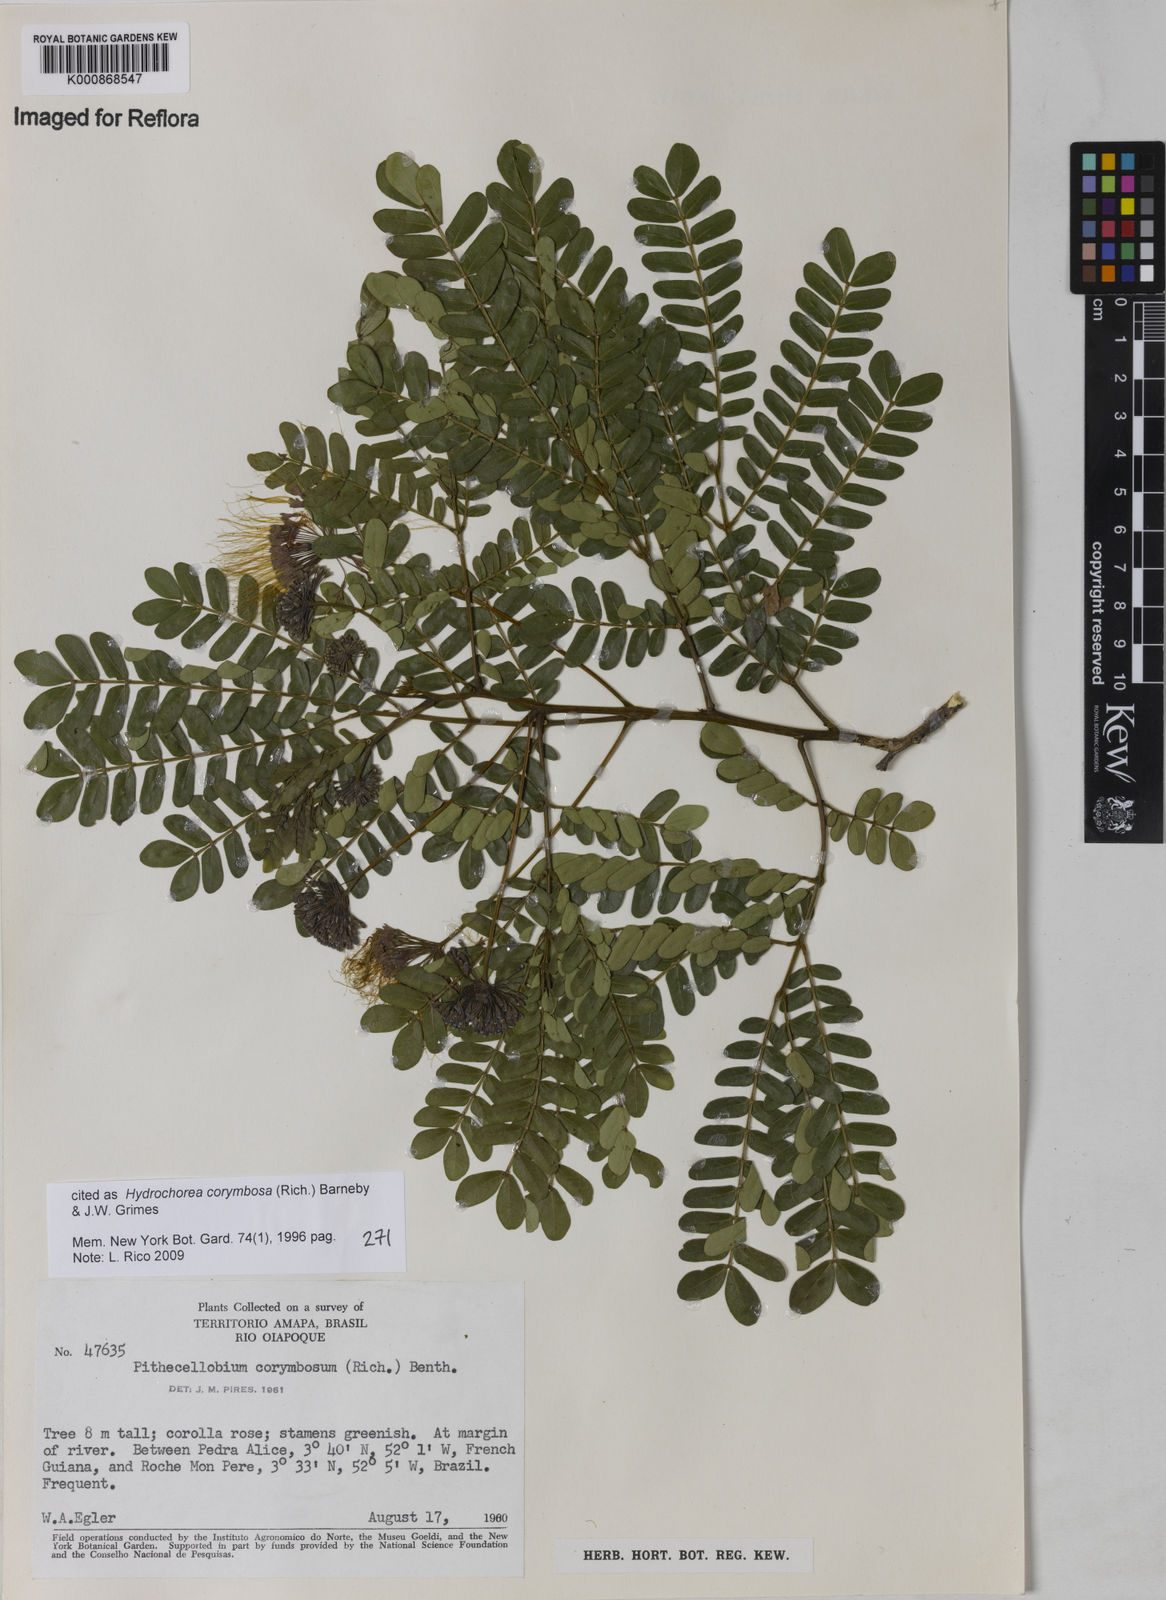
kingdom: Plantae
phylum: Tracheophyta
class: Magnoliopsida
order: Fabales
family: Fabaceae
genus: Hydrochorea
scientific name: Hydrochorea corymbosa
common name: Swamp manariballi
